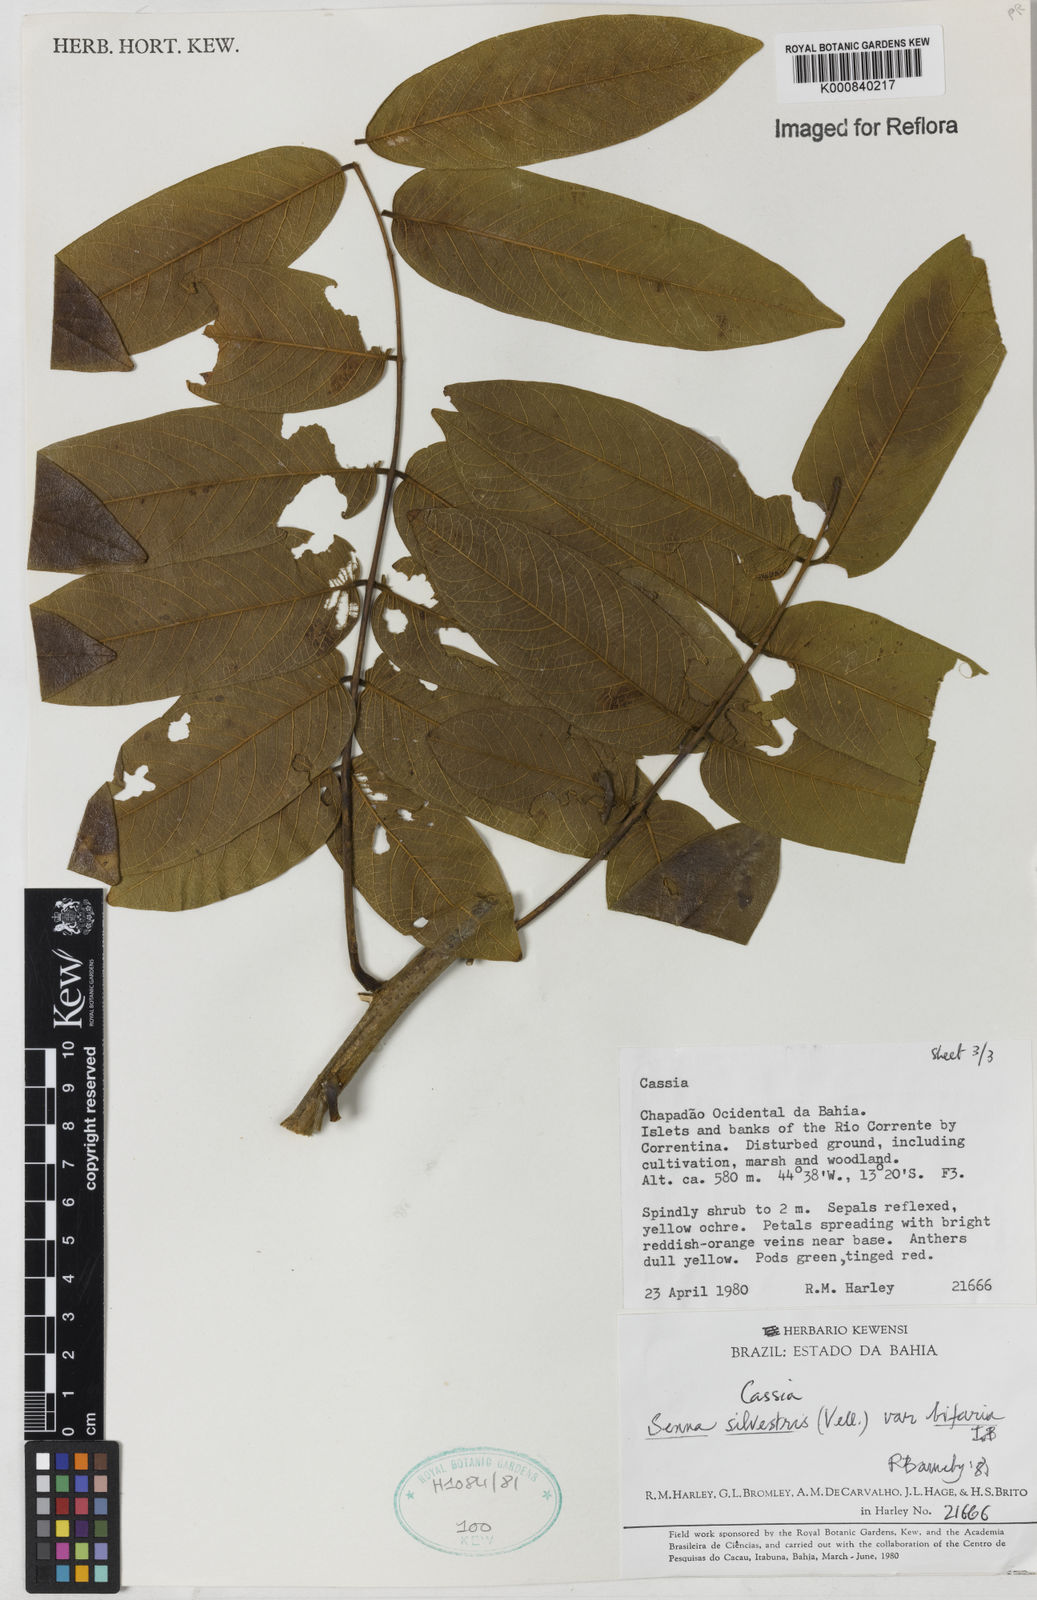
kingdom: Plantae
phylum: Tracheophyta
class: Magnoliopsida
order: Fabales
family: Fabaceae
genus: Senna
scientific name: Senna silvestris
